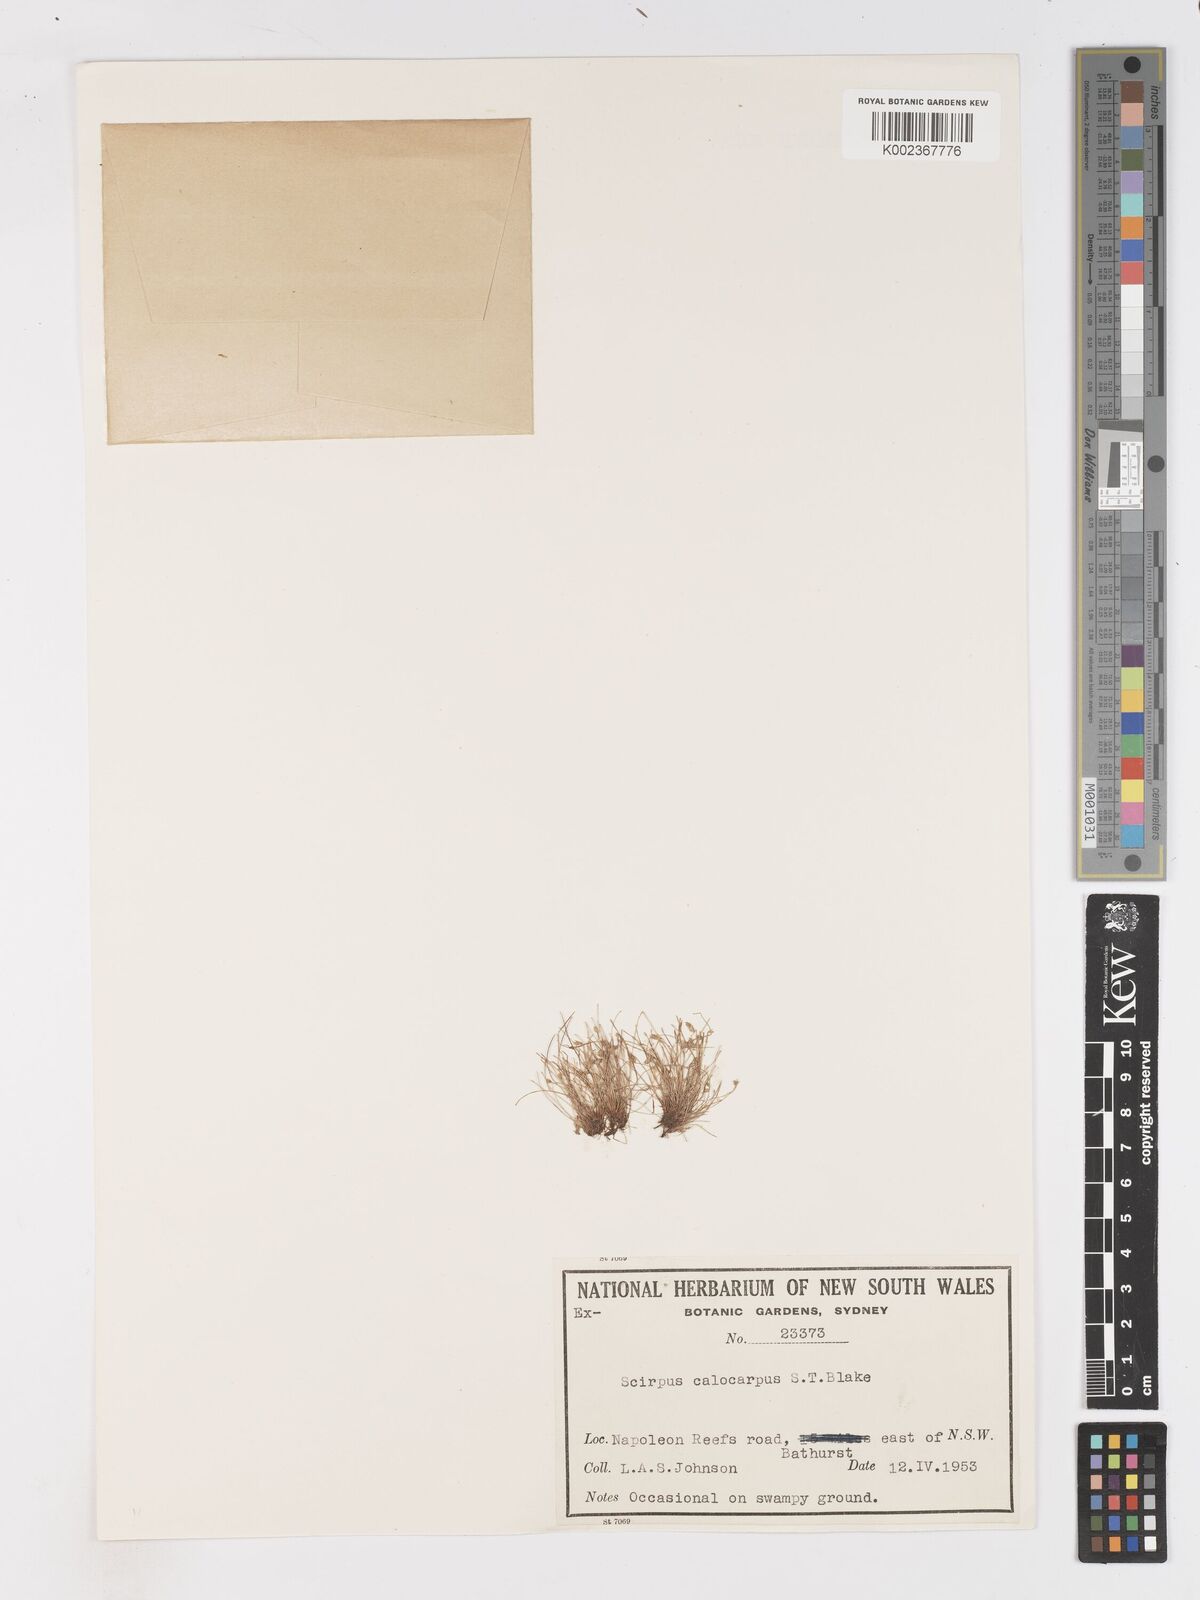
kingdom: Plantae
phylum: Tracheophyta
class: Liliopsida
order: Poales
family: Cyperaceae
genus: Isolepis
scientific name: Isolepis multicaulis
